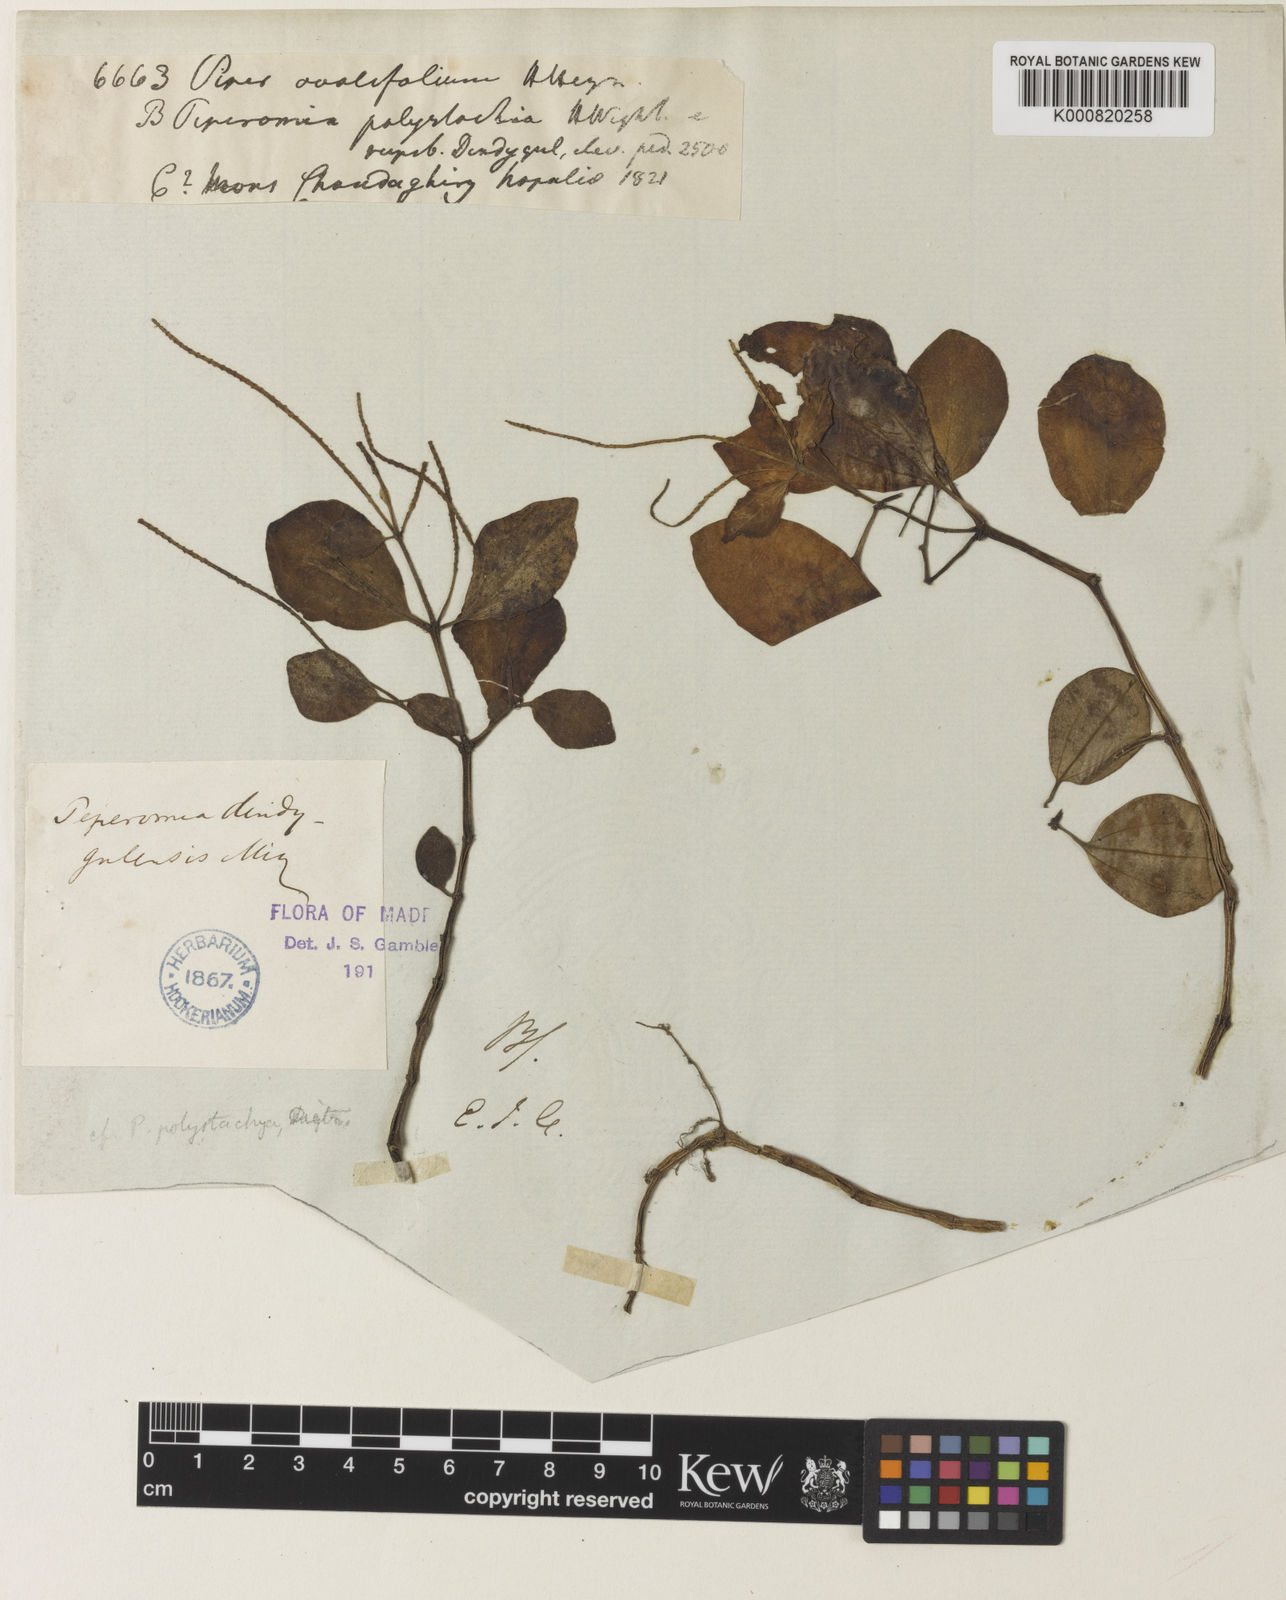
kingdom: Plantae
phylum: Tracheophyta
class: Magnoliopsida
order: Piperales
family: Piperaceae
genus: Peperomia
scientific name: Peperomia leptostachya
